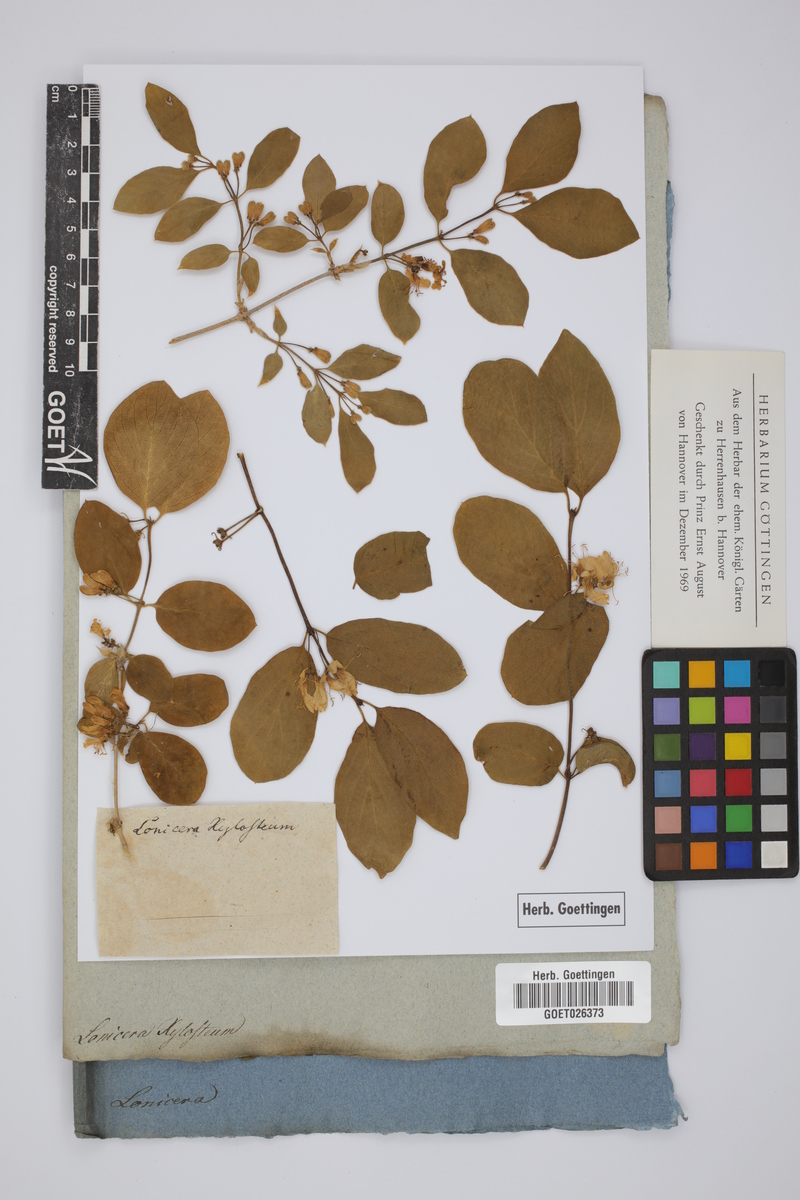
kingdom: Plantae
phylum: Tracheophyta
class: Magnoliopsida
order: Dipsacales
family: Caprifoliaceae
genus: Lonicera
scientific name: Lonicera xylosteum
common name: Fly honeysuckle
